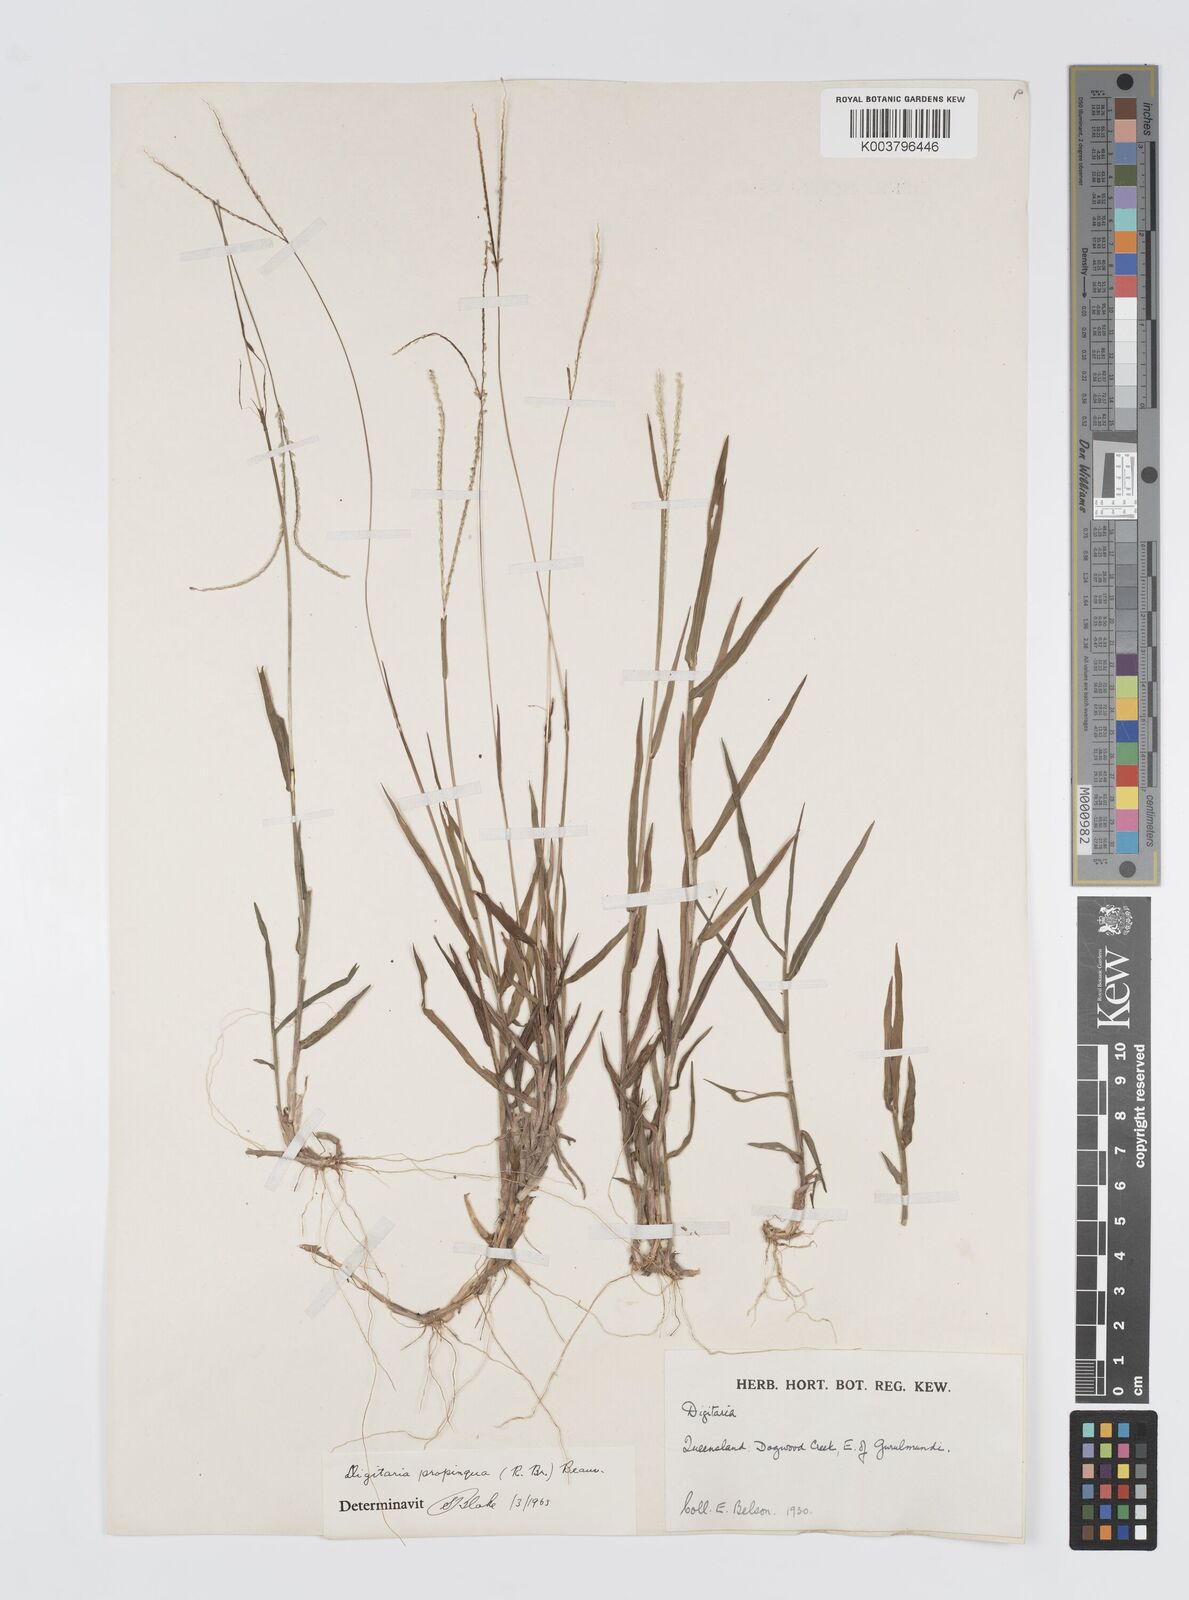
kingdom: Plantae
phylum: Tracheophyta
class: Liliopsida
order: Poales
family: Poaceae
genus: Digitaria
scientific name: Digitaria longiflora
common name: Wire crabgrass
